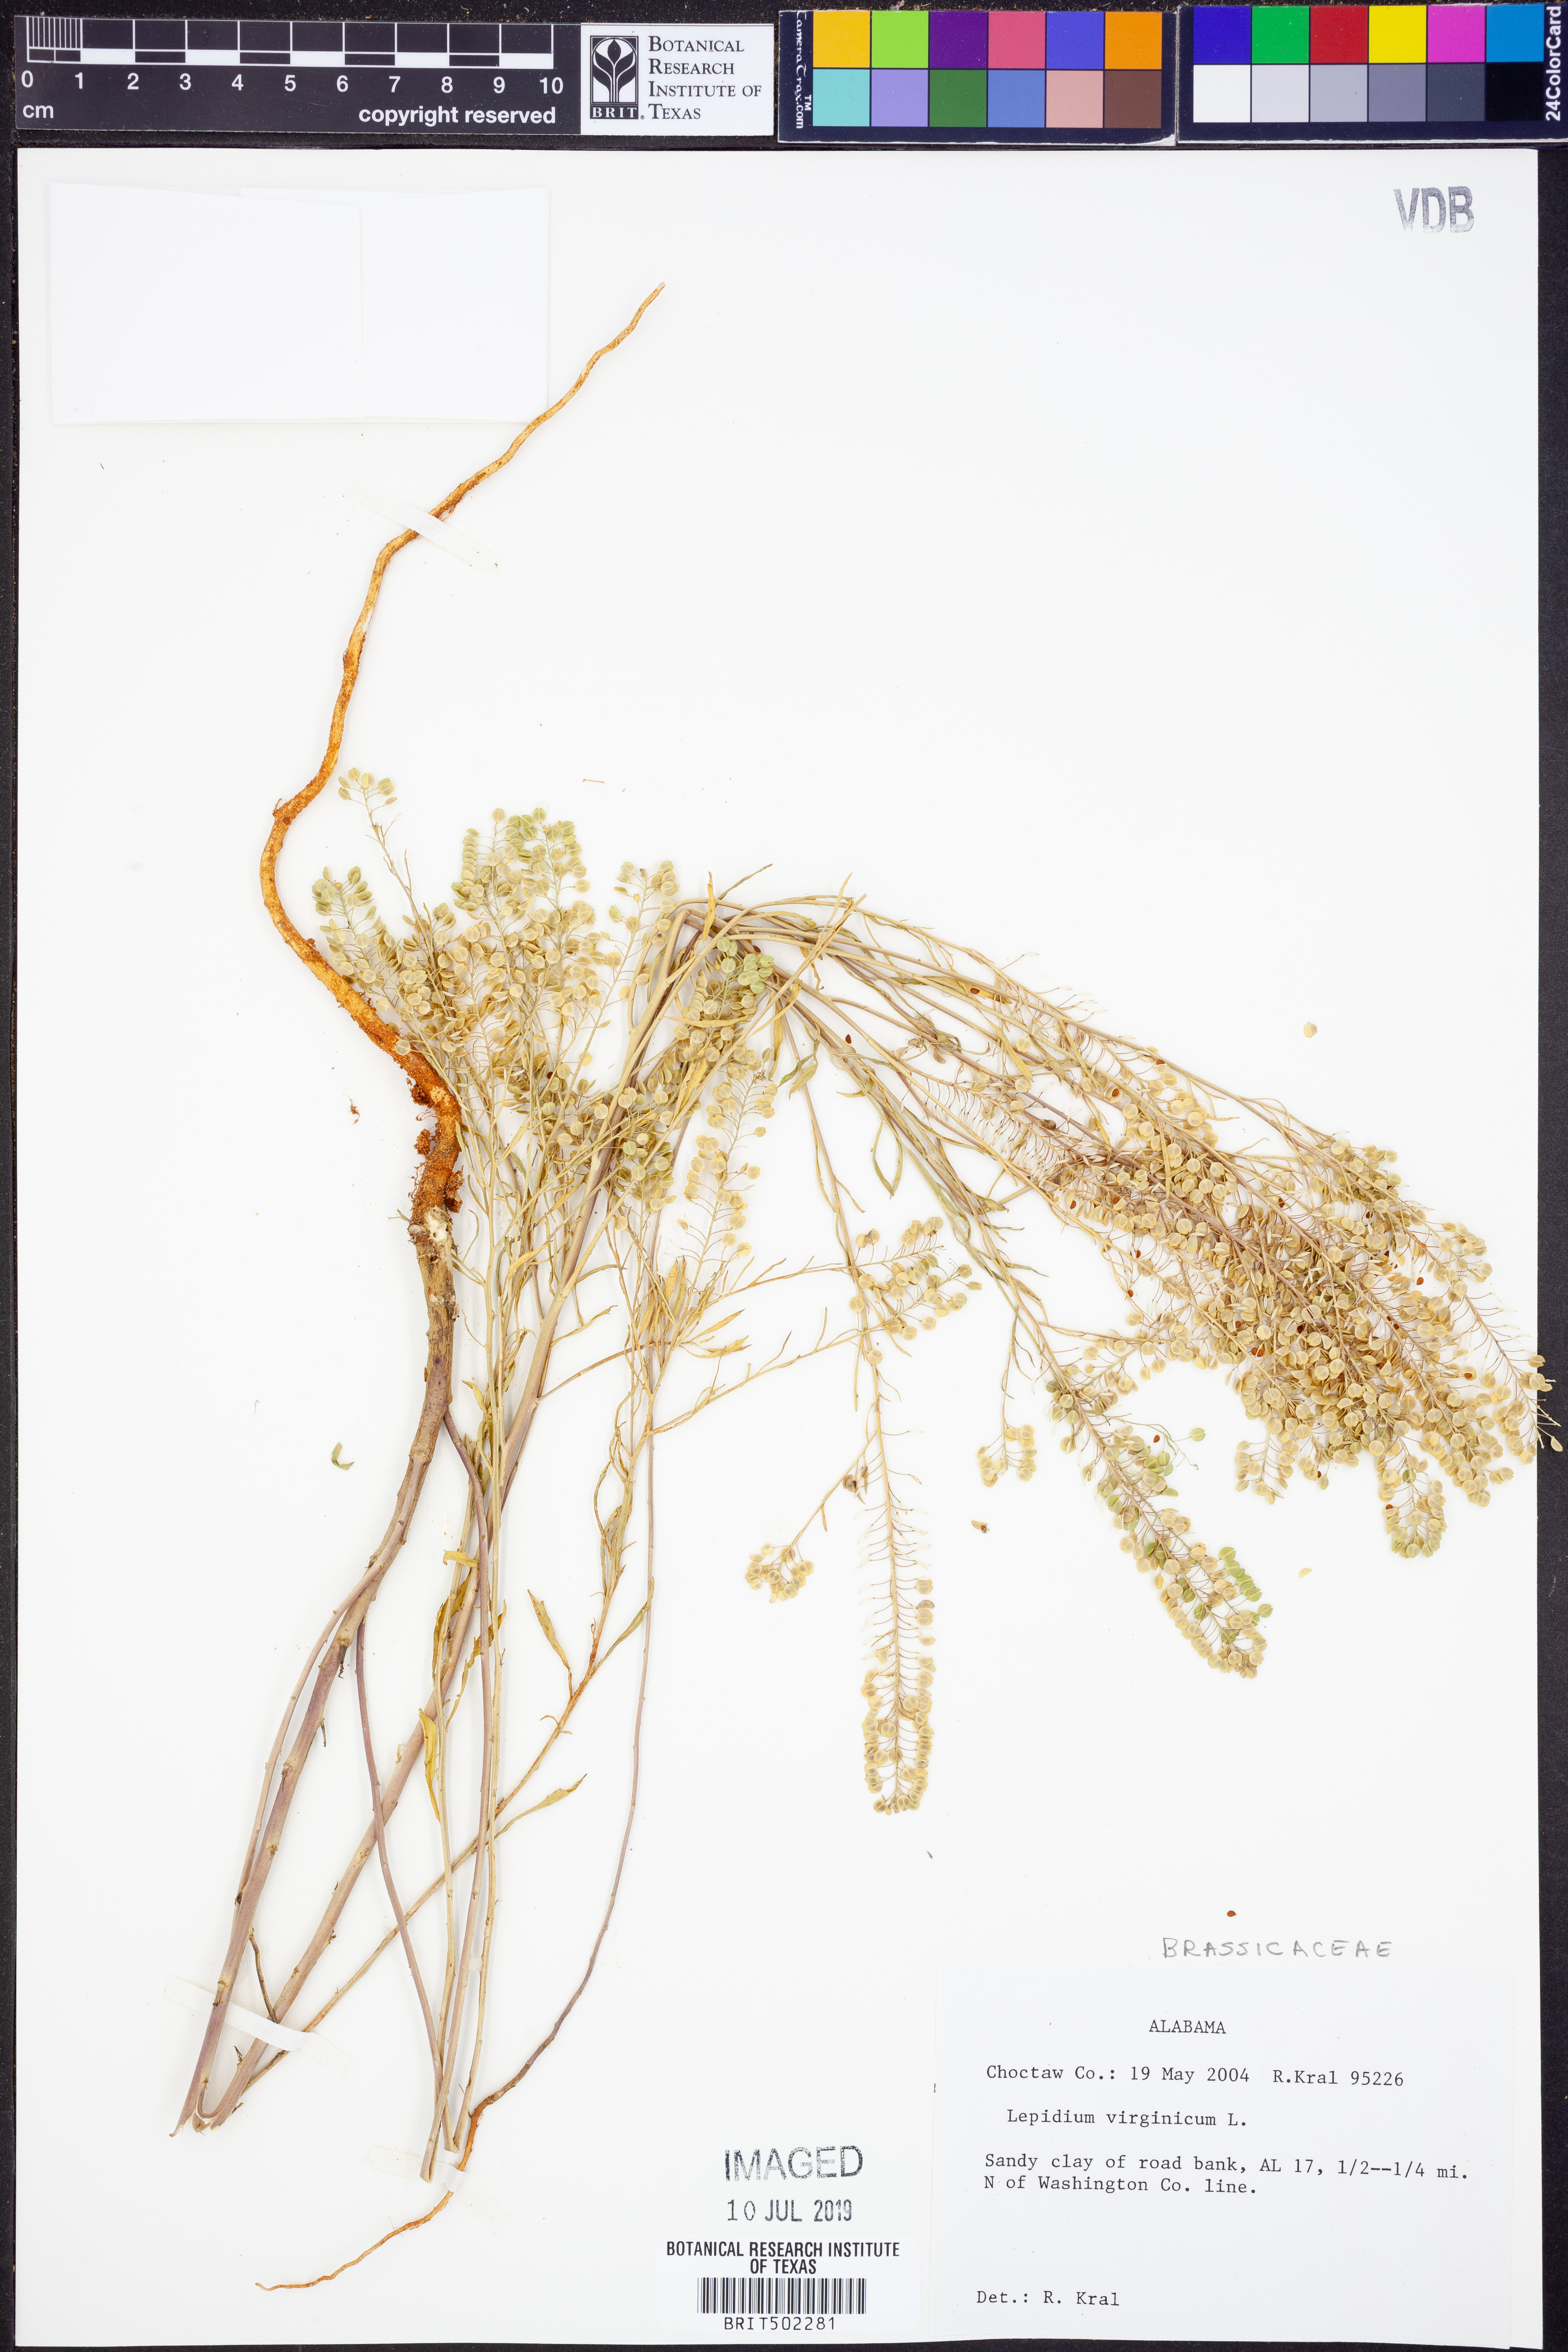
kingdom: Plantae
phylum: Tracheophyta
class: Magnoliopsida
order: Brassicales
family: Brassicaceae
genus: Lepidium
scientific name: Lepidium virginicum
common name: Least pepperwort
